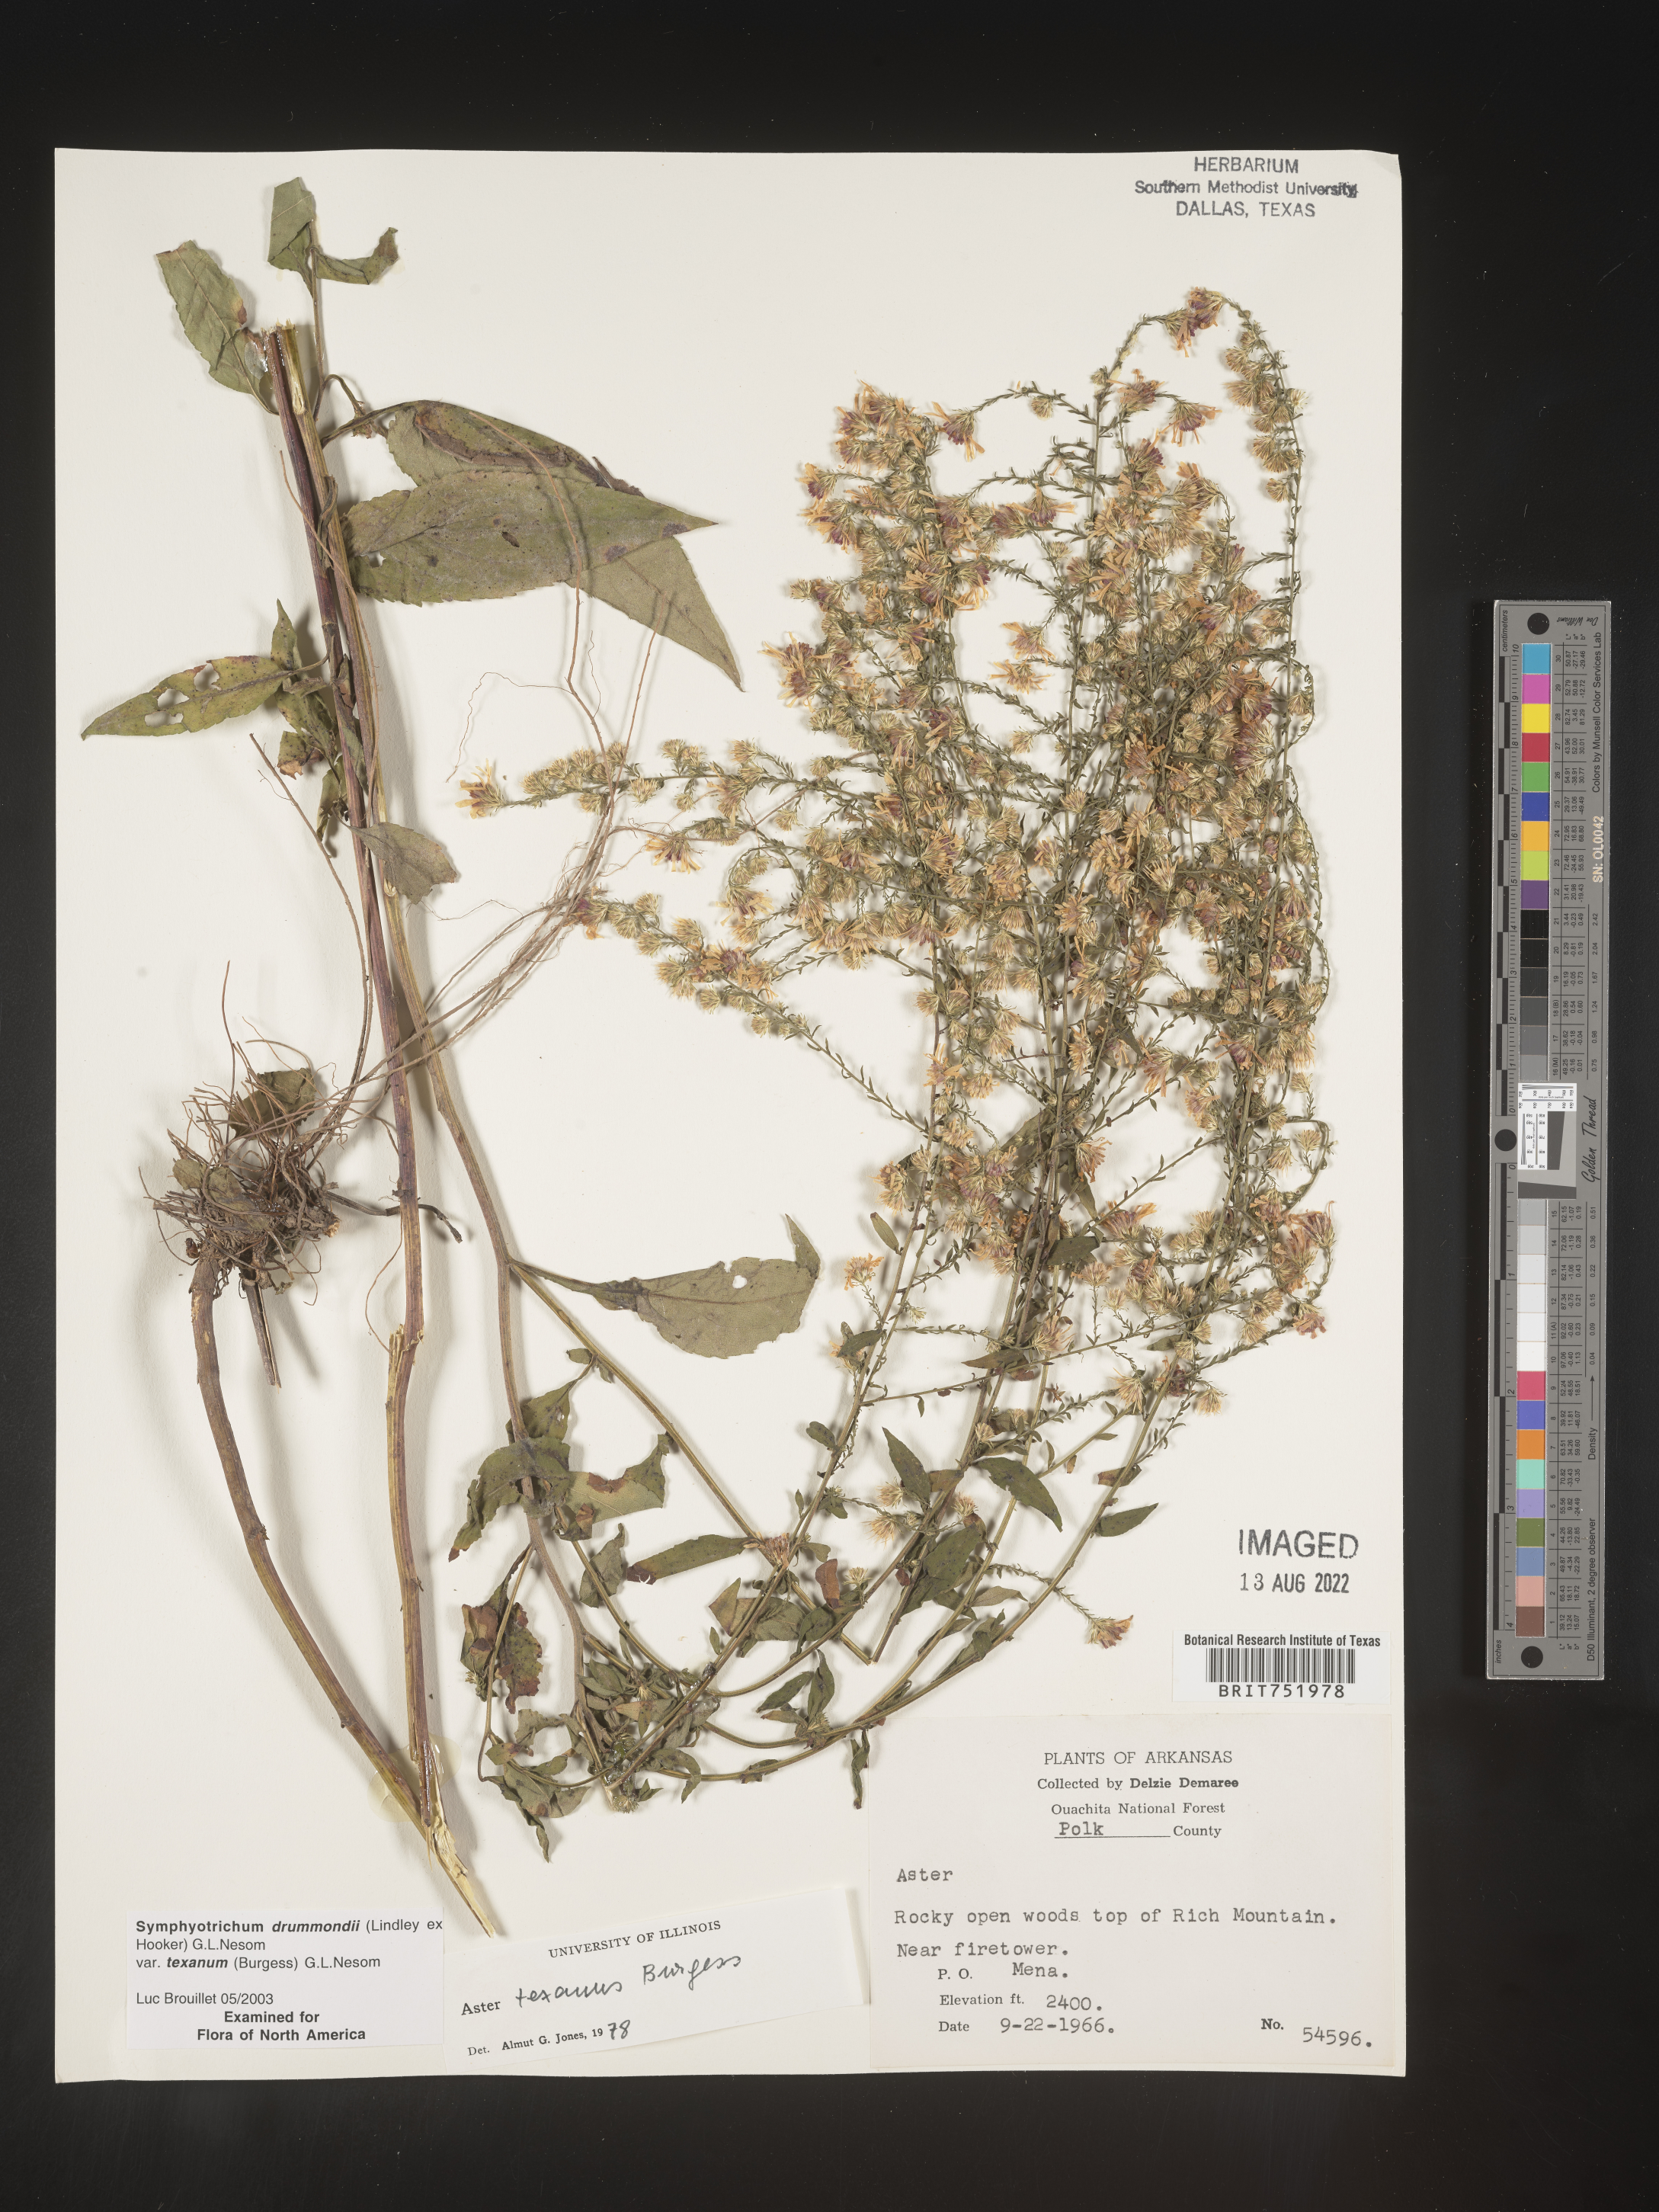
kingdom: Plantae
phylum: Tracheophyta
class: Magnoliopsida
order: Asterales
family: Asteraceae
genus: Symphyotrichum
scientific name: Symphyotrichum drummondii
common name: Drummond's aster
